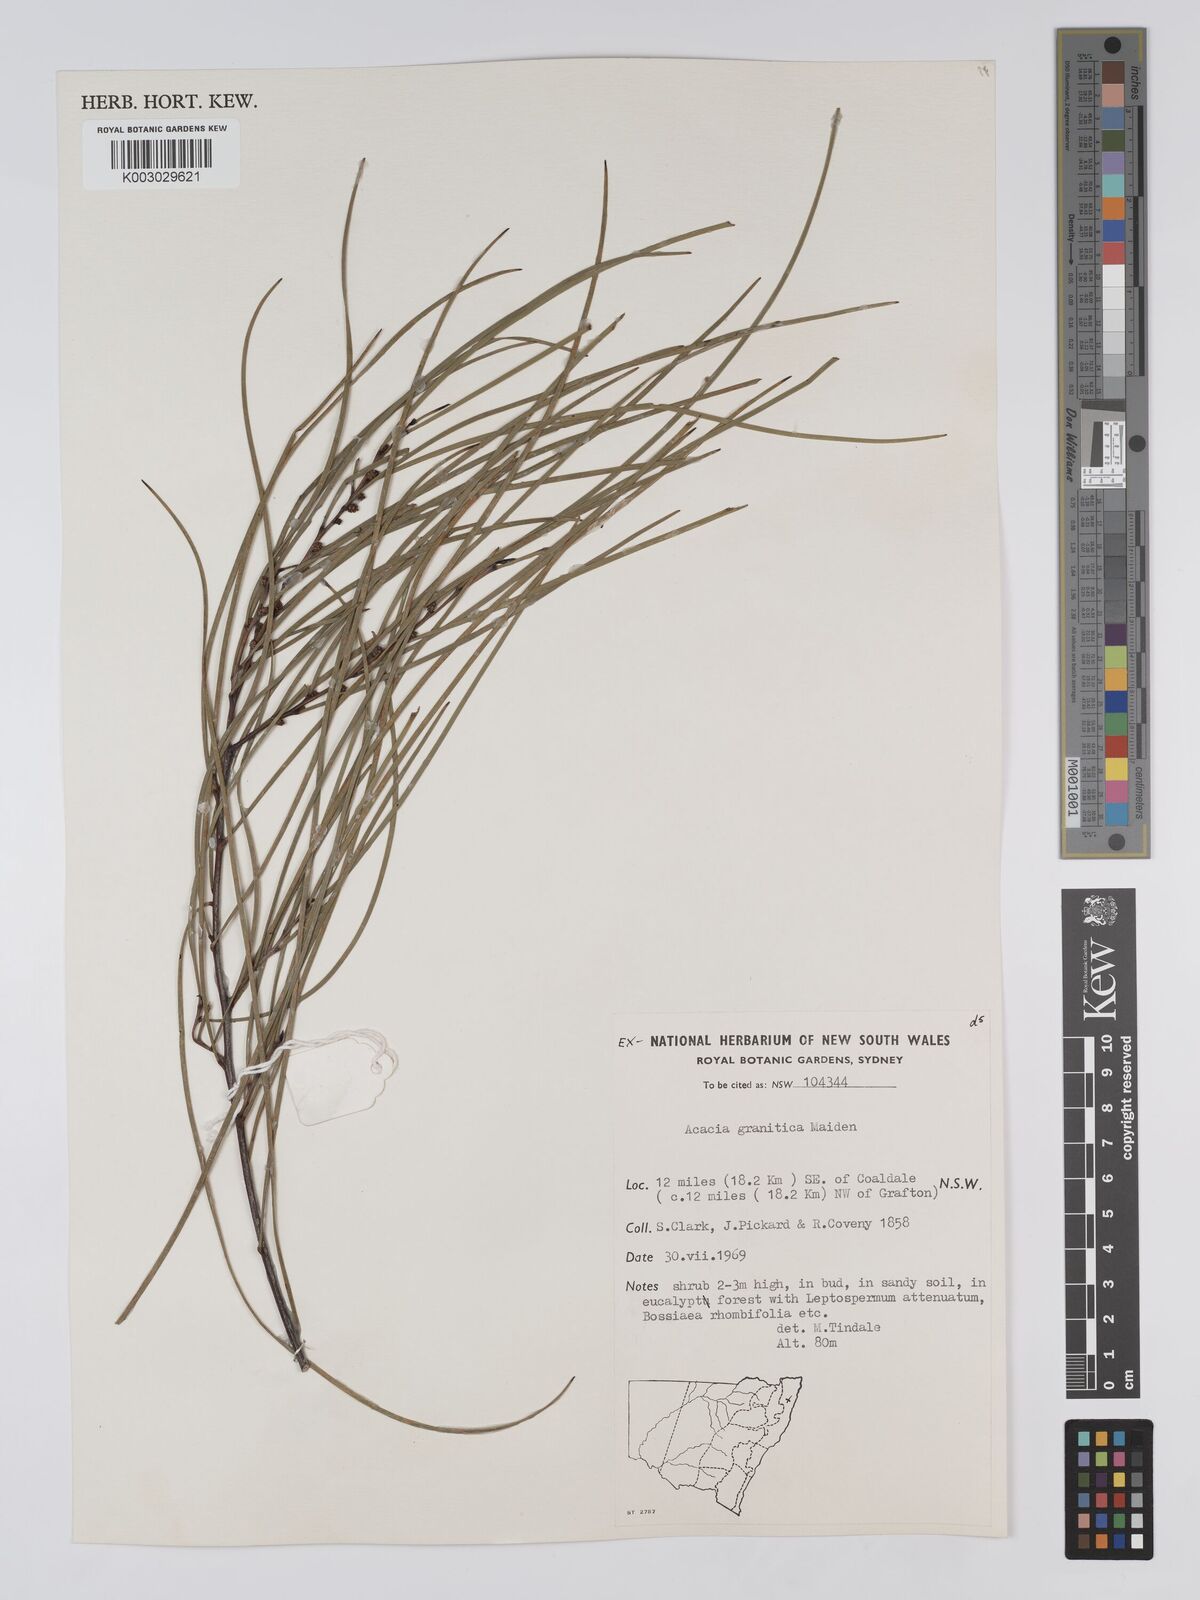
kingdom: Plantae
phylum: Tracheophyta
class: Magnoliopsida
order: Fabales
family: Fabaceae
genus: Acacia
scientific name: Acacia granitica
